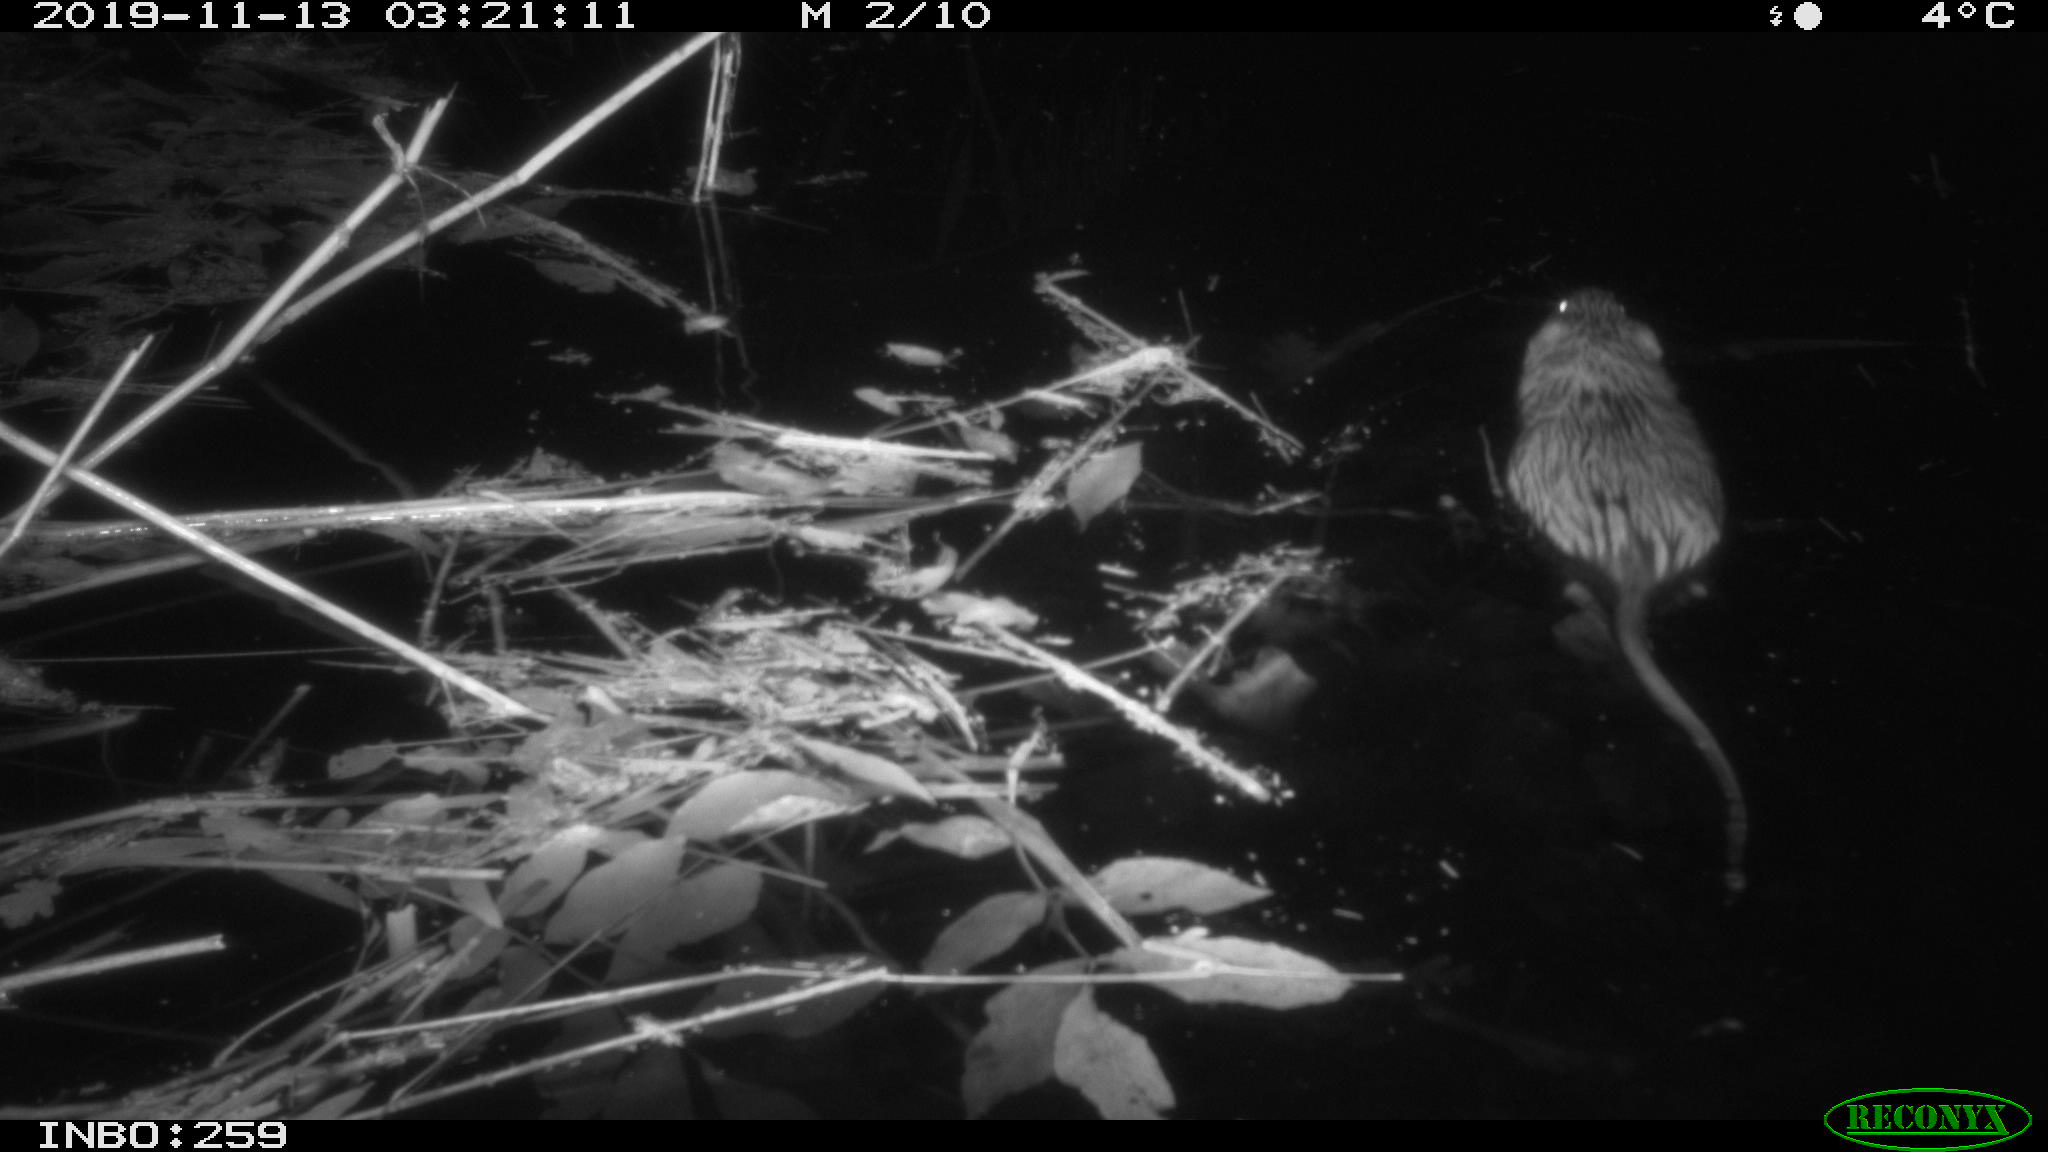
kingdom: Animalia
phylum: Chordata
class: Mammalia
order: Rodentia
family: Cricetidae
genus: Ondatra
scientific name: Ondatra zibethicus
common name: Muskrat
